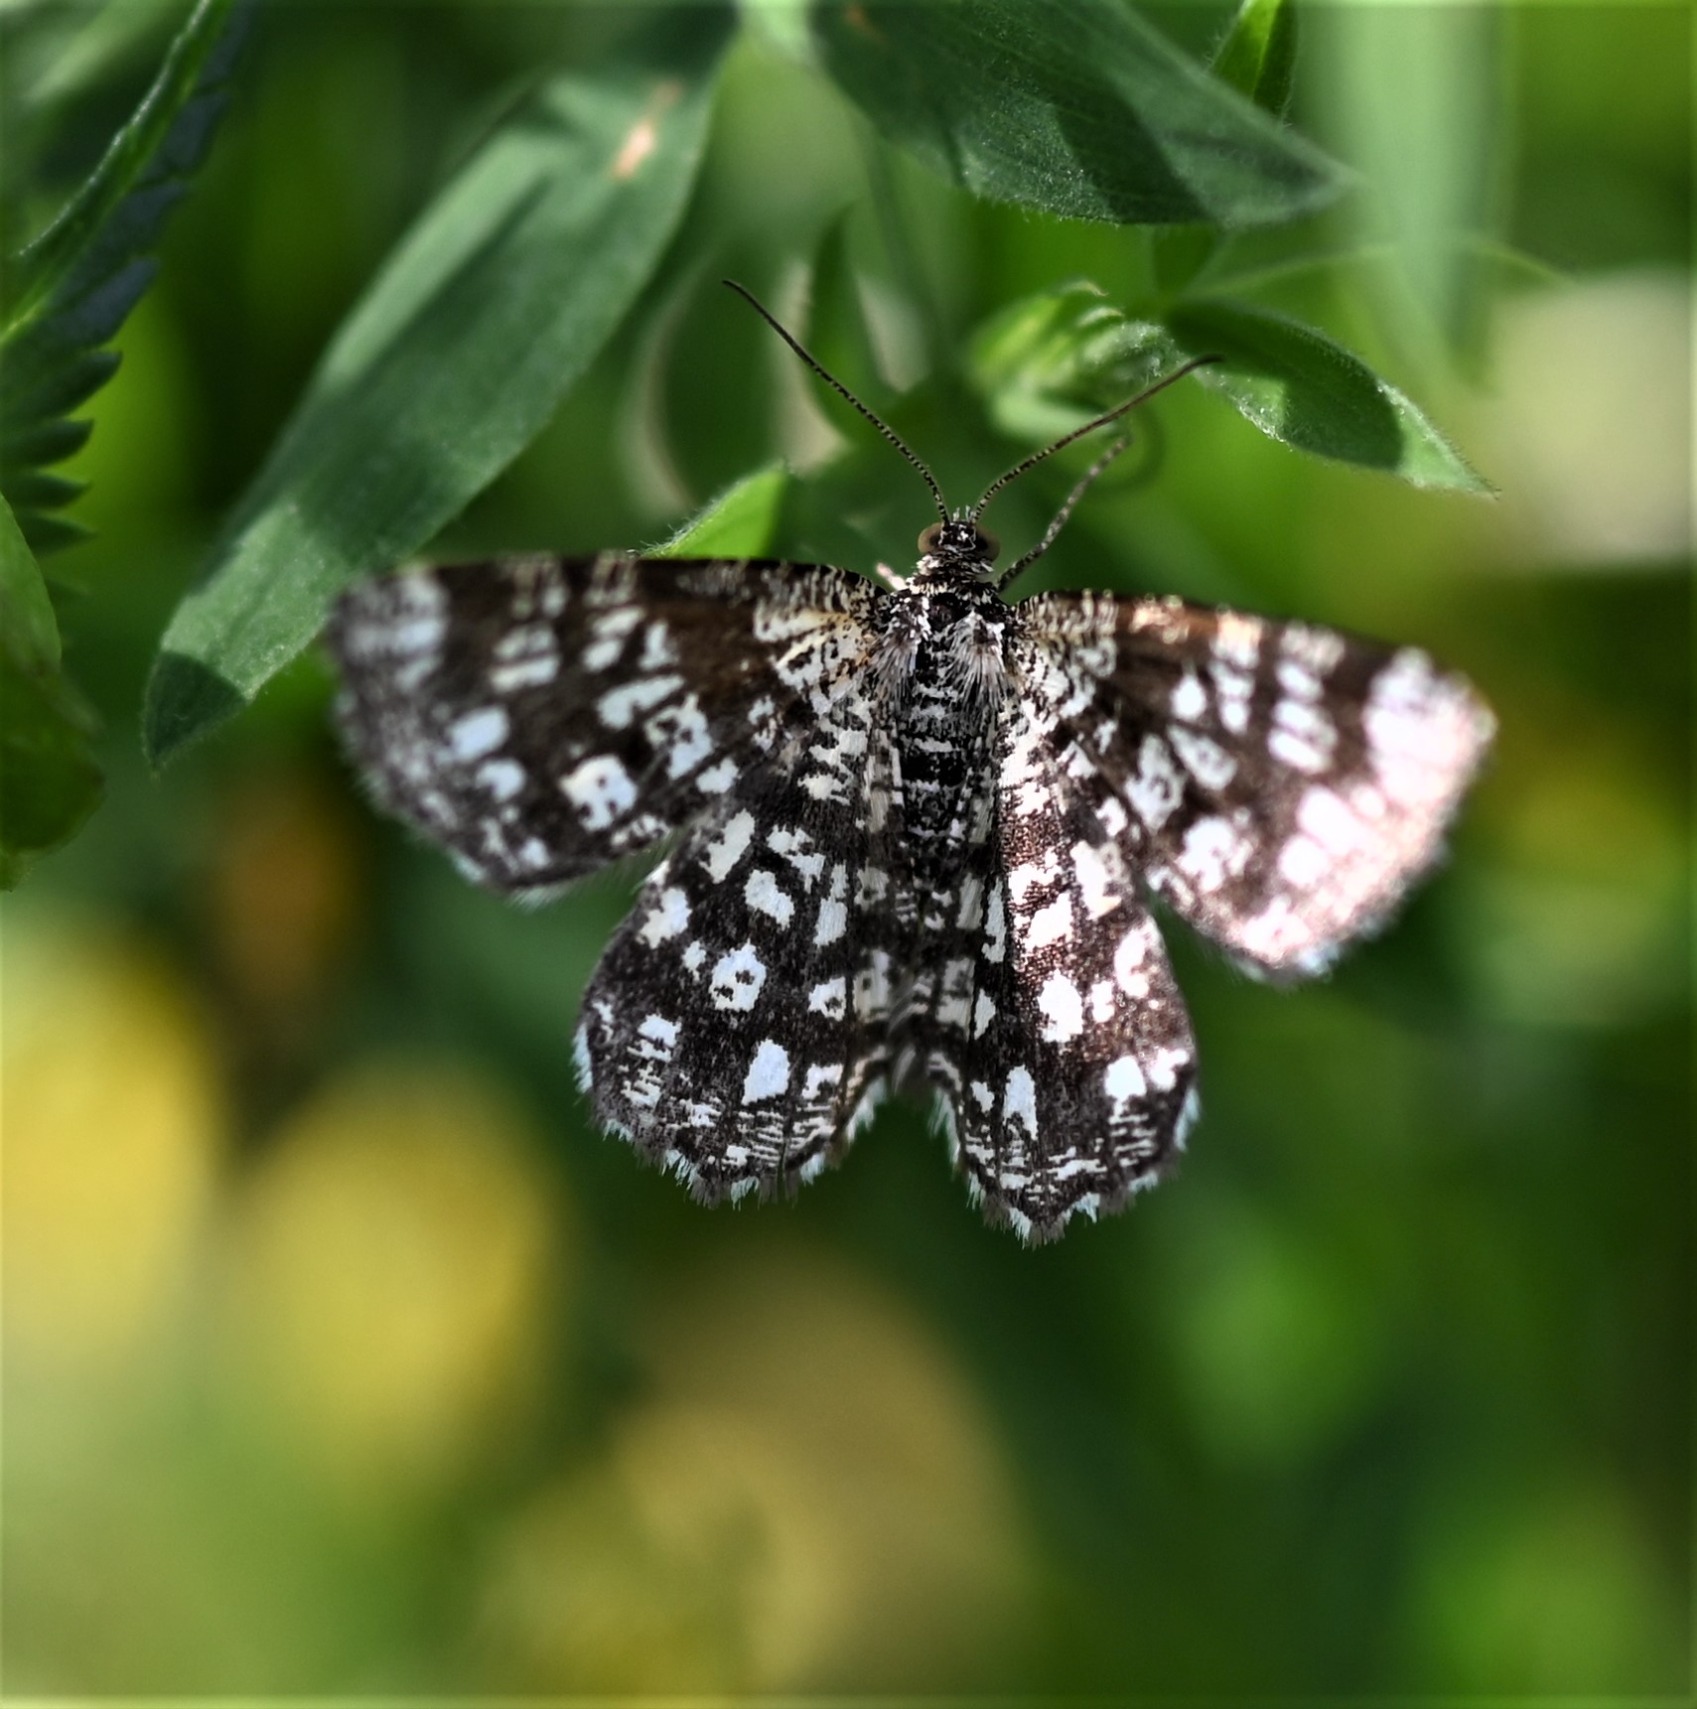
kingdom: Animalia
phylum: Arthropoda
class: Insecta
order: Lepidoptera
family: Geometridae
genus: Chiasmia
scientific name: Chiasmia clathrata
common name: Kløvermåler
